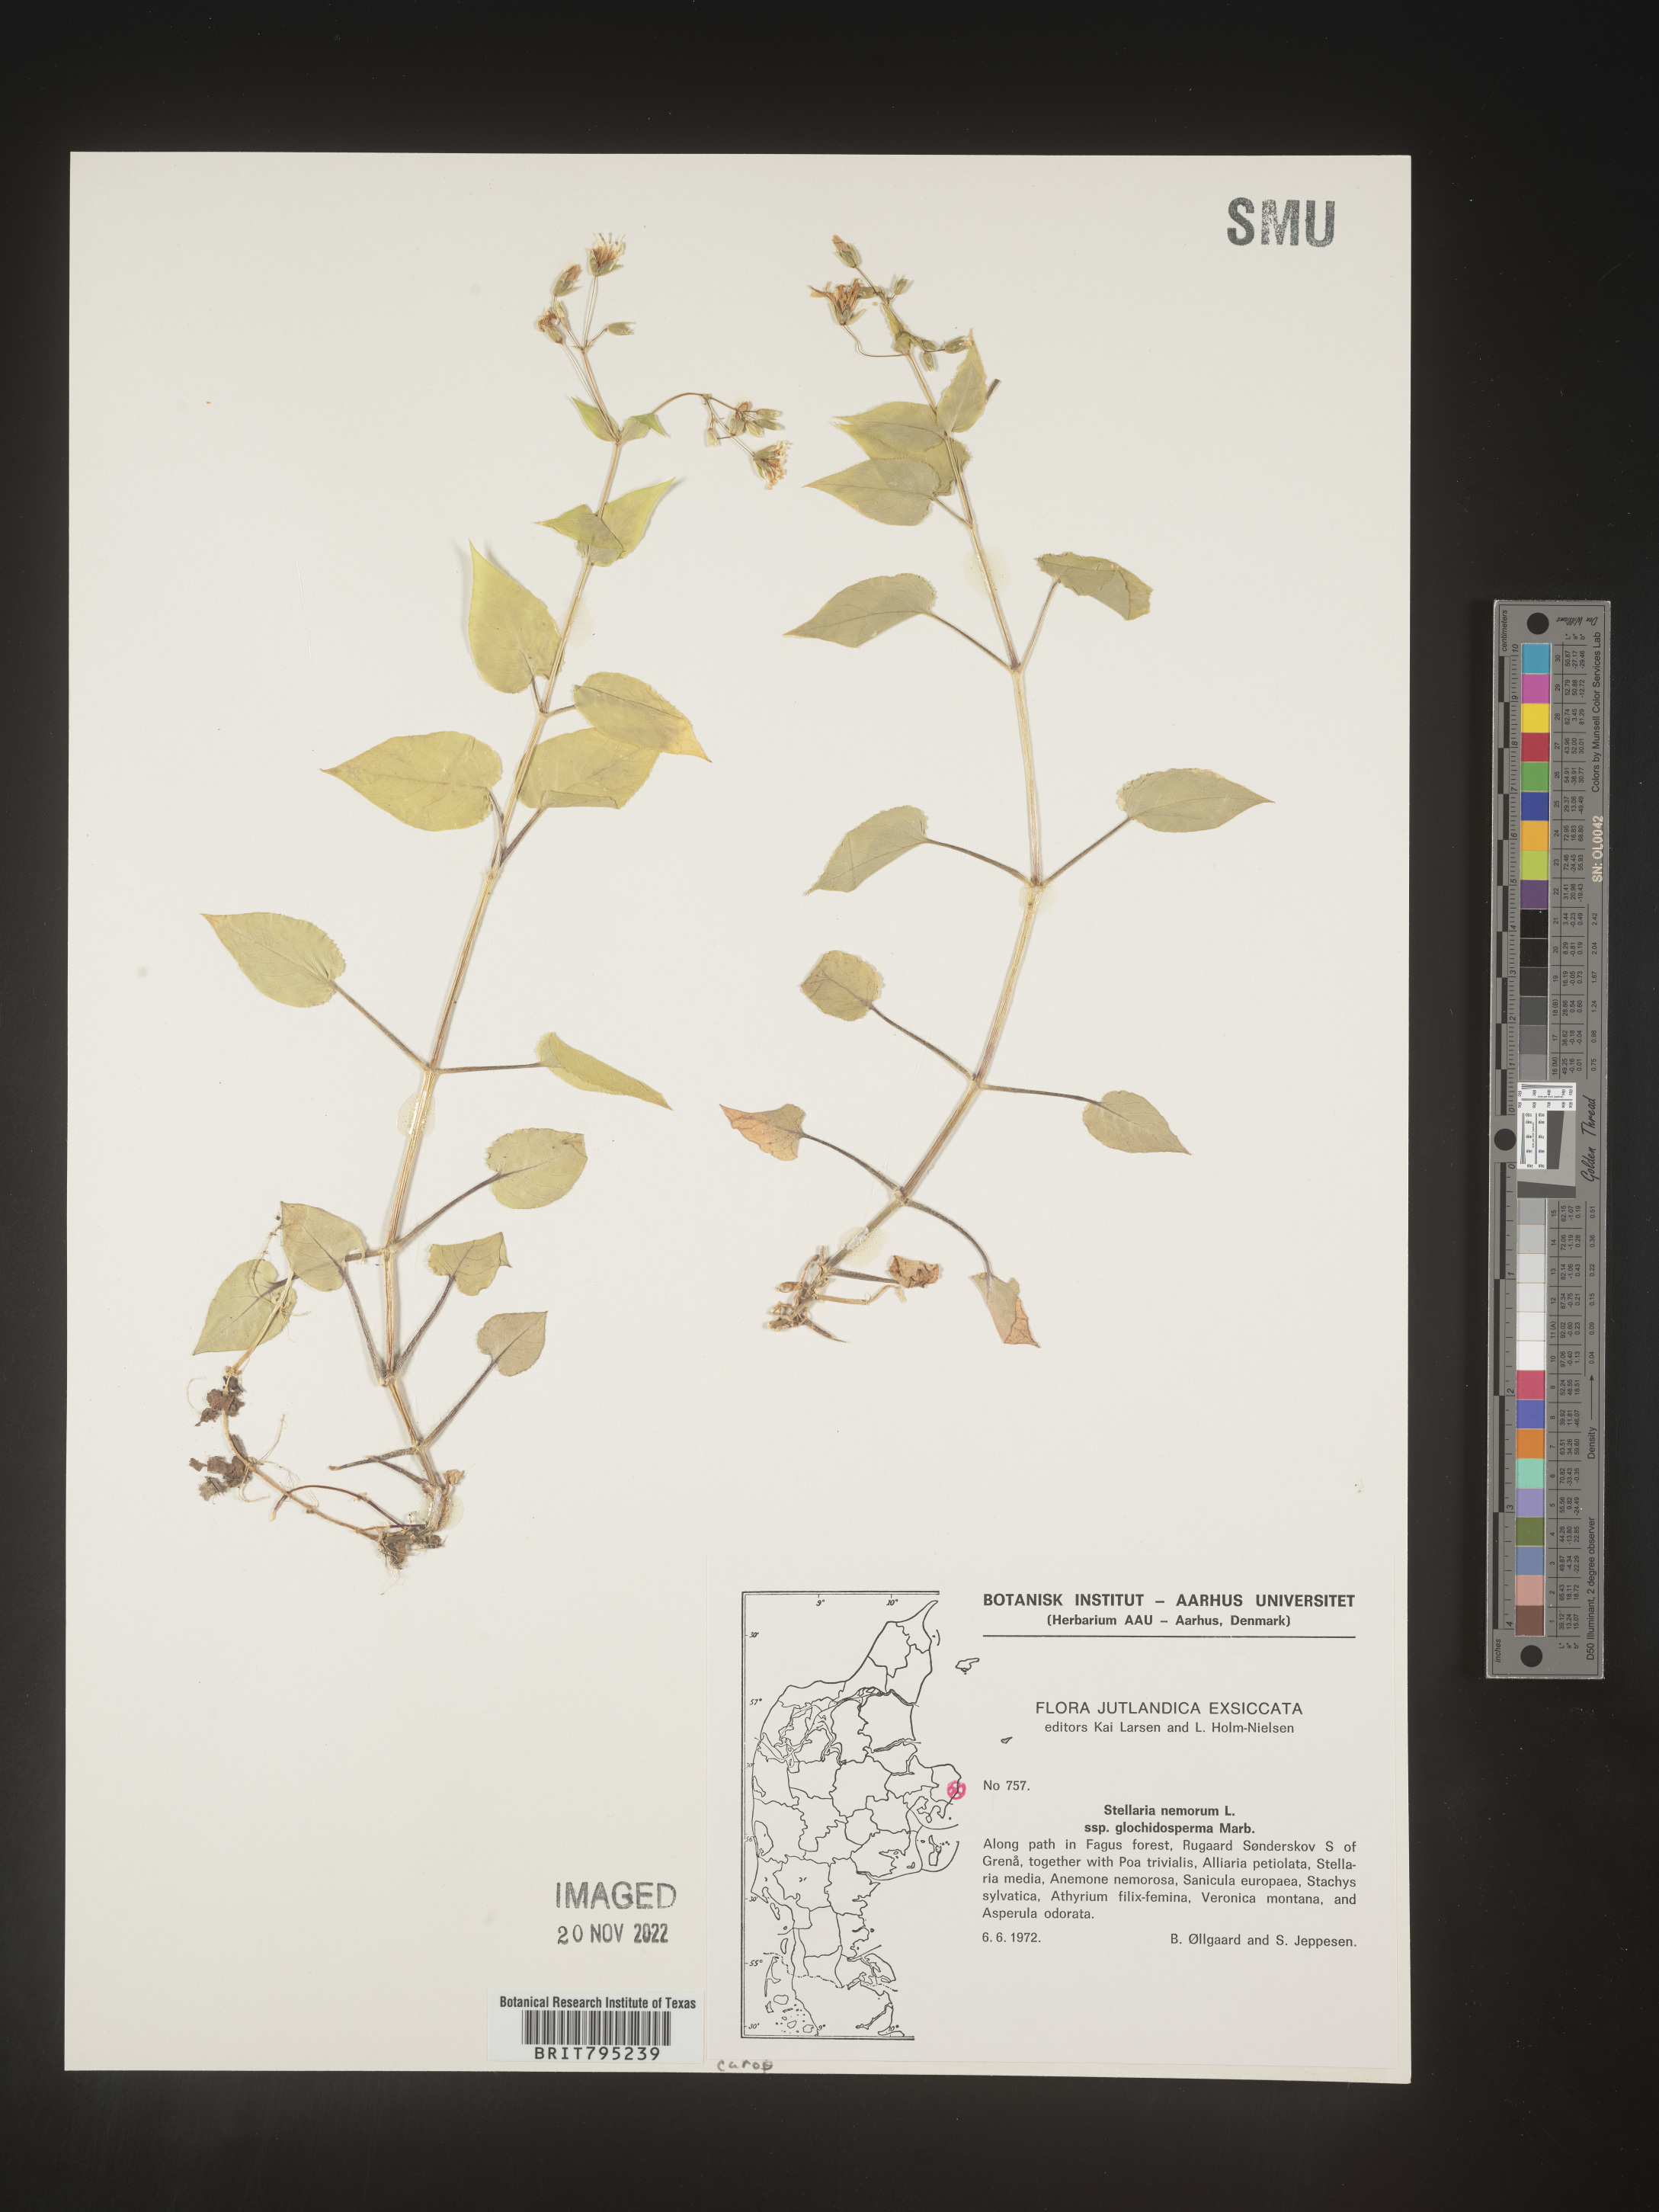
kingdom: Plantae
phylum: Tracheophyta
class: Magnoliopsida
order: Caryophyllales
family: Caryophyllaceae
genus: Stellaria
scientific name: Stellaria
